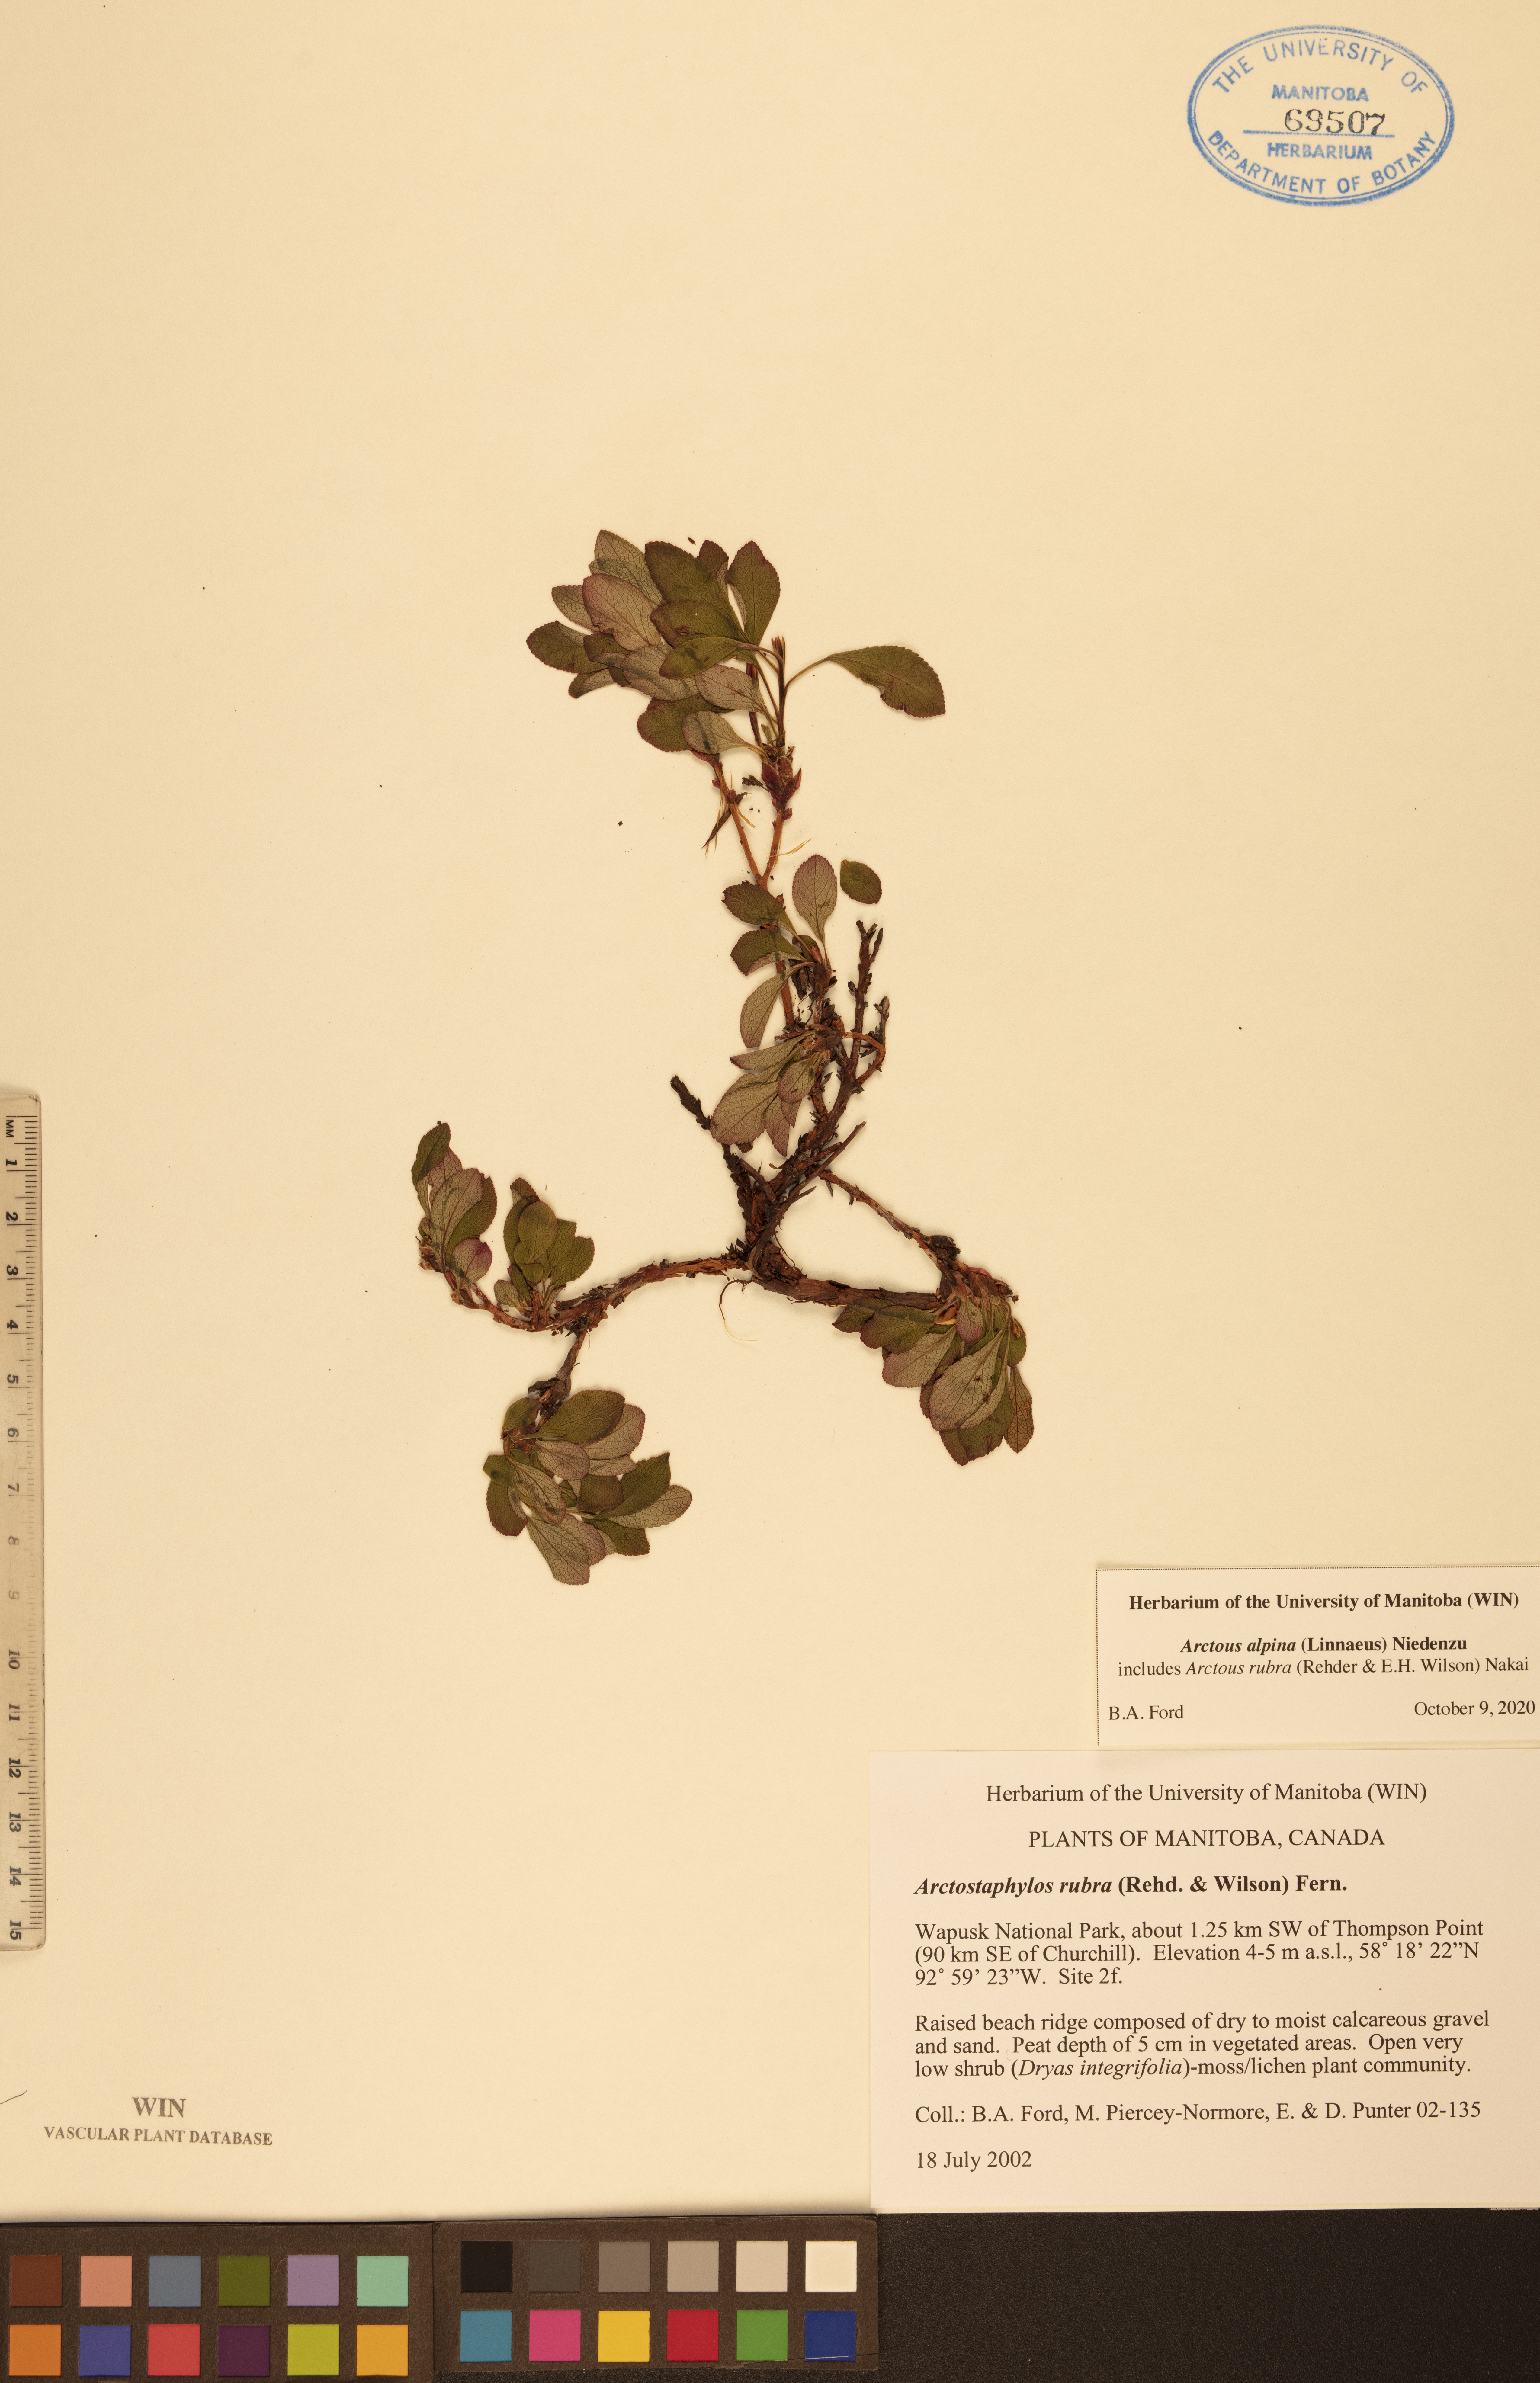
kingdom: Plantae
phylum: Tracheophyta
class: Magnoliopsida
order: Ericales
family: Ericaceae
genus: Arctostaphylos
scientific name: Arctostaphylos alpinus
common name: Alpine bearberry
